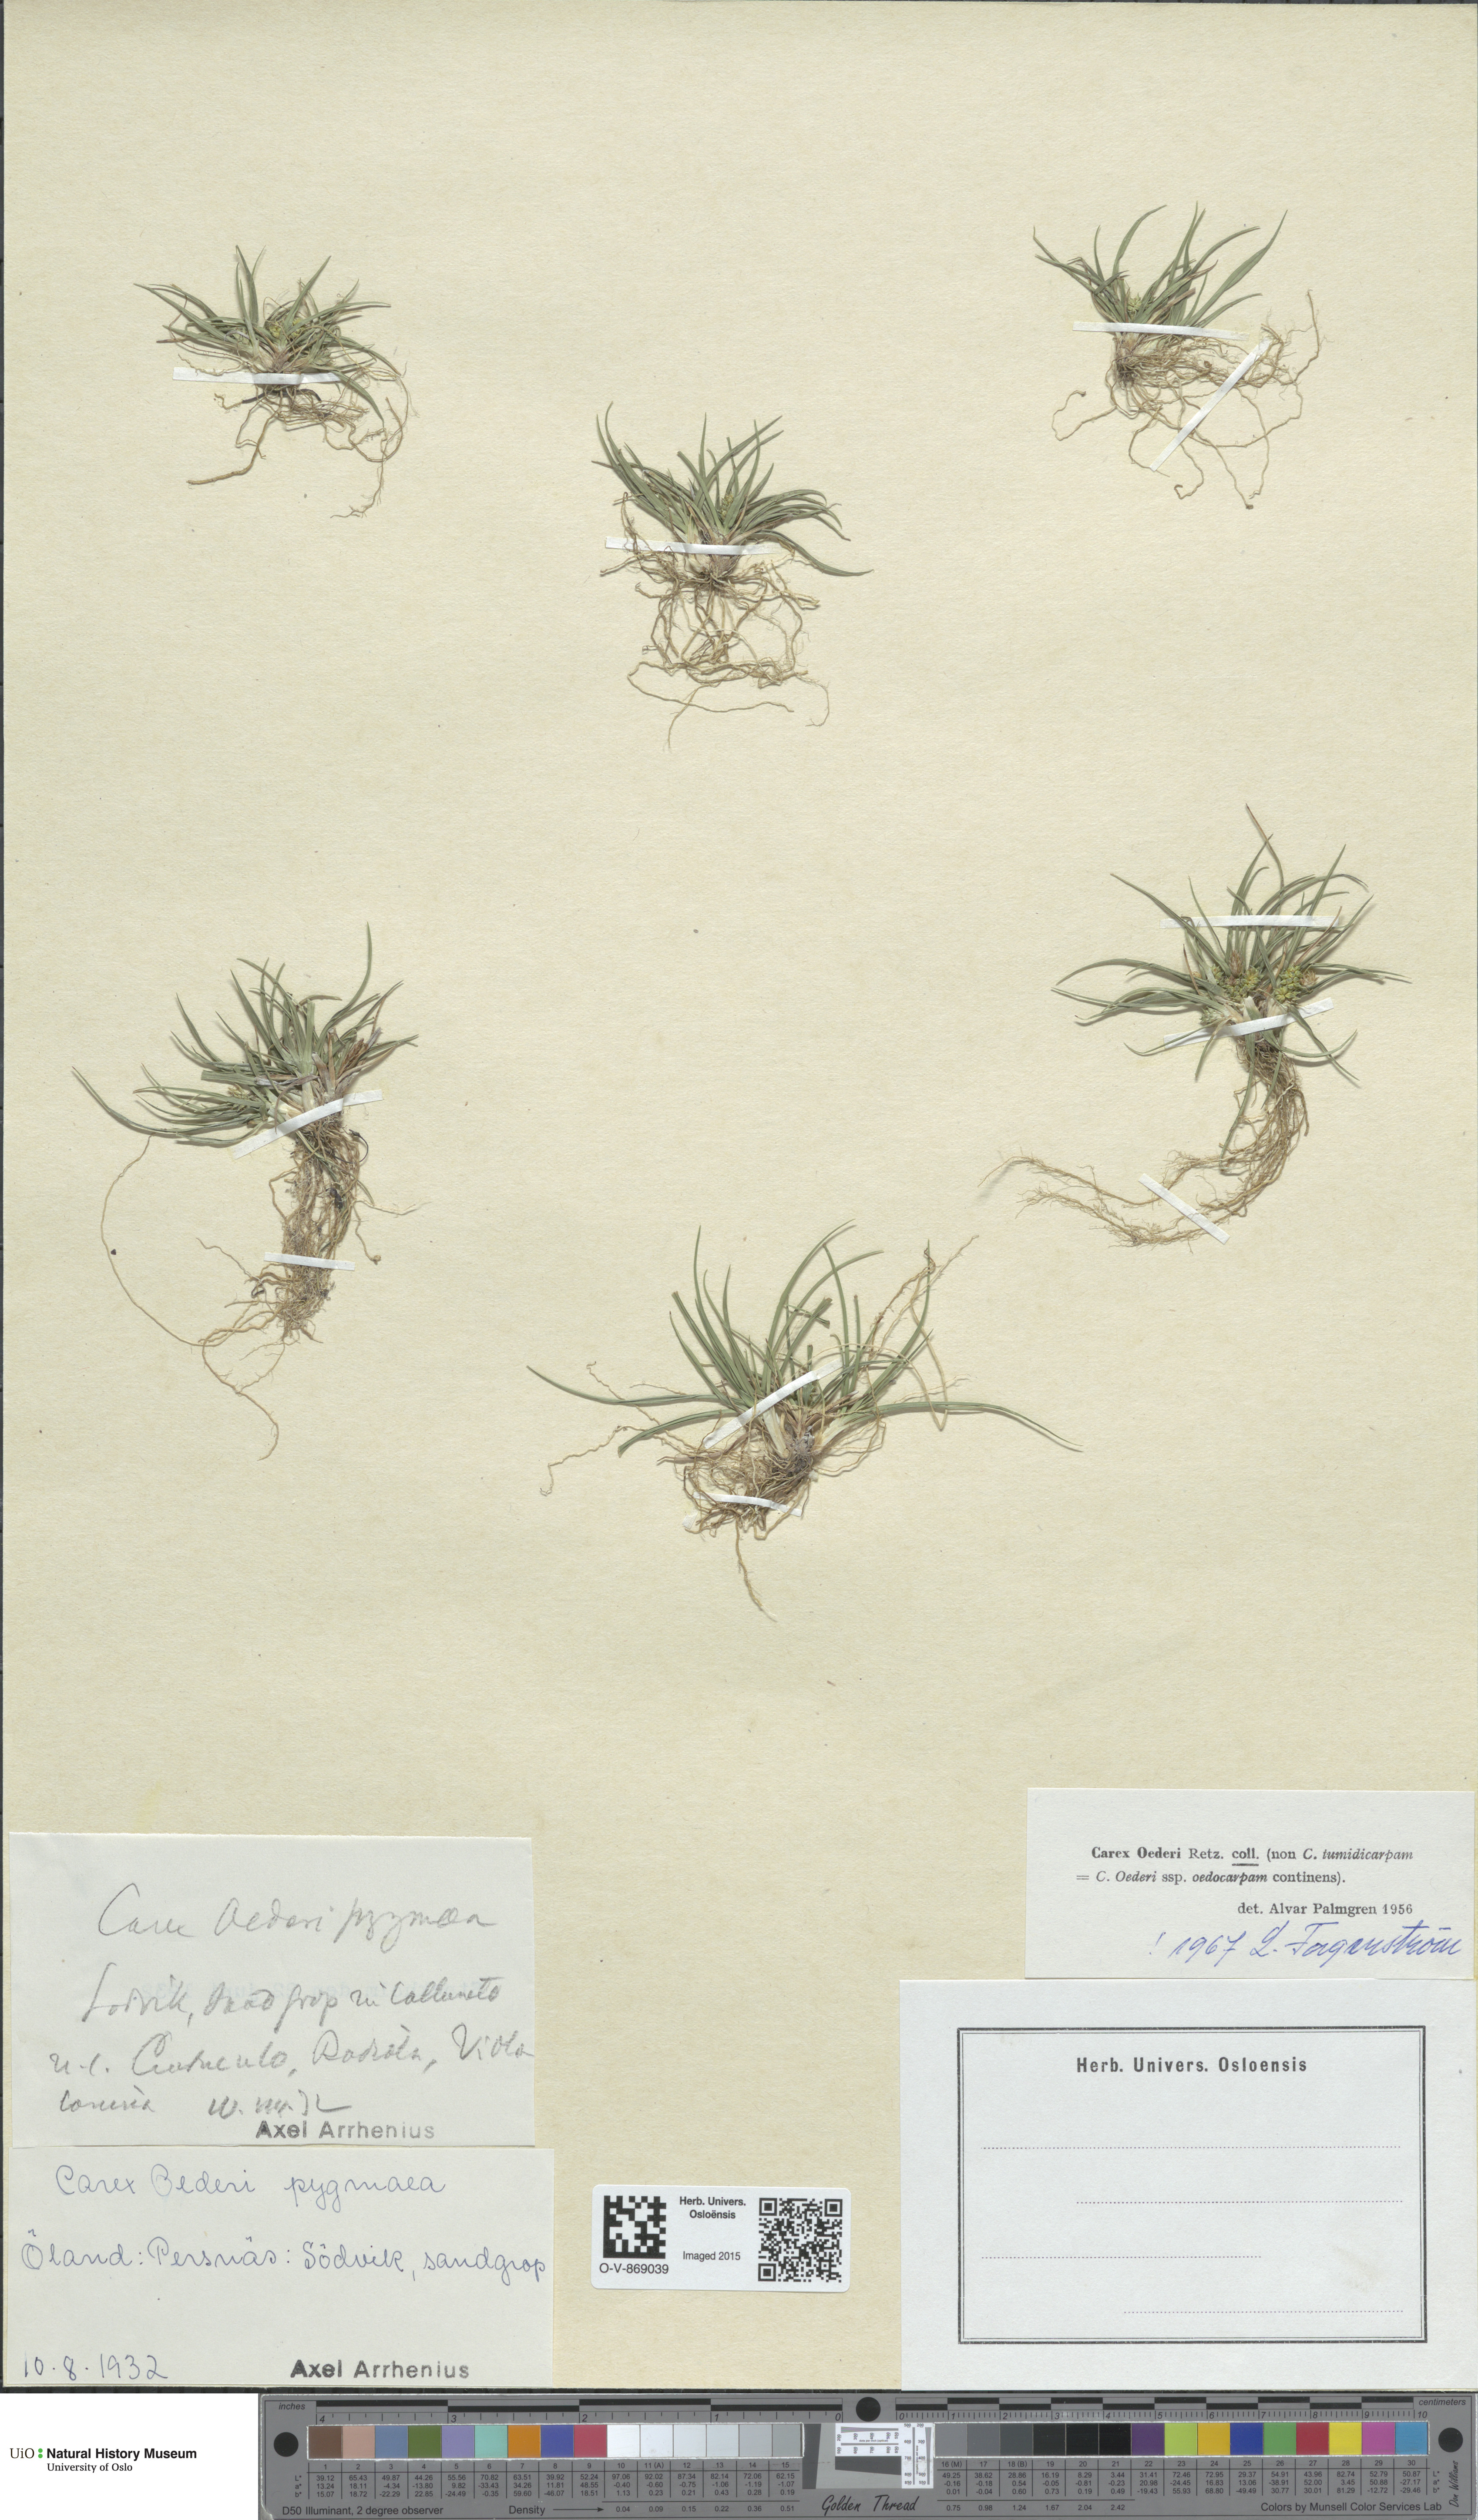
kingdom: Plantae
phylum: Tracheophyta
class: Liliopsida
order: Poales
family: Cyperaceae
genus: Carex
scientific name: Carex oederi
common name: Common & small-fruited yellow-sedge
